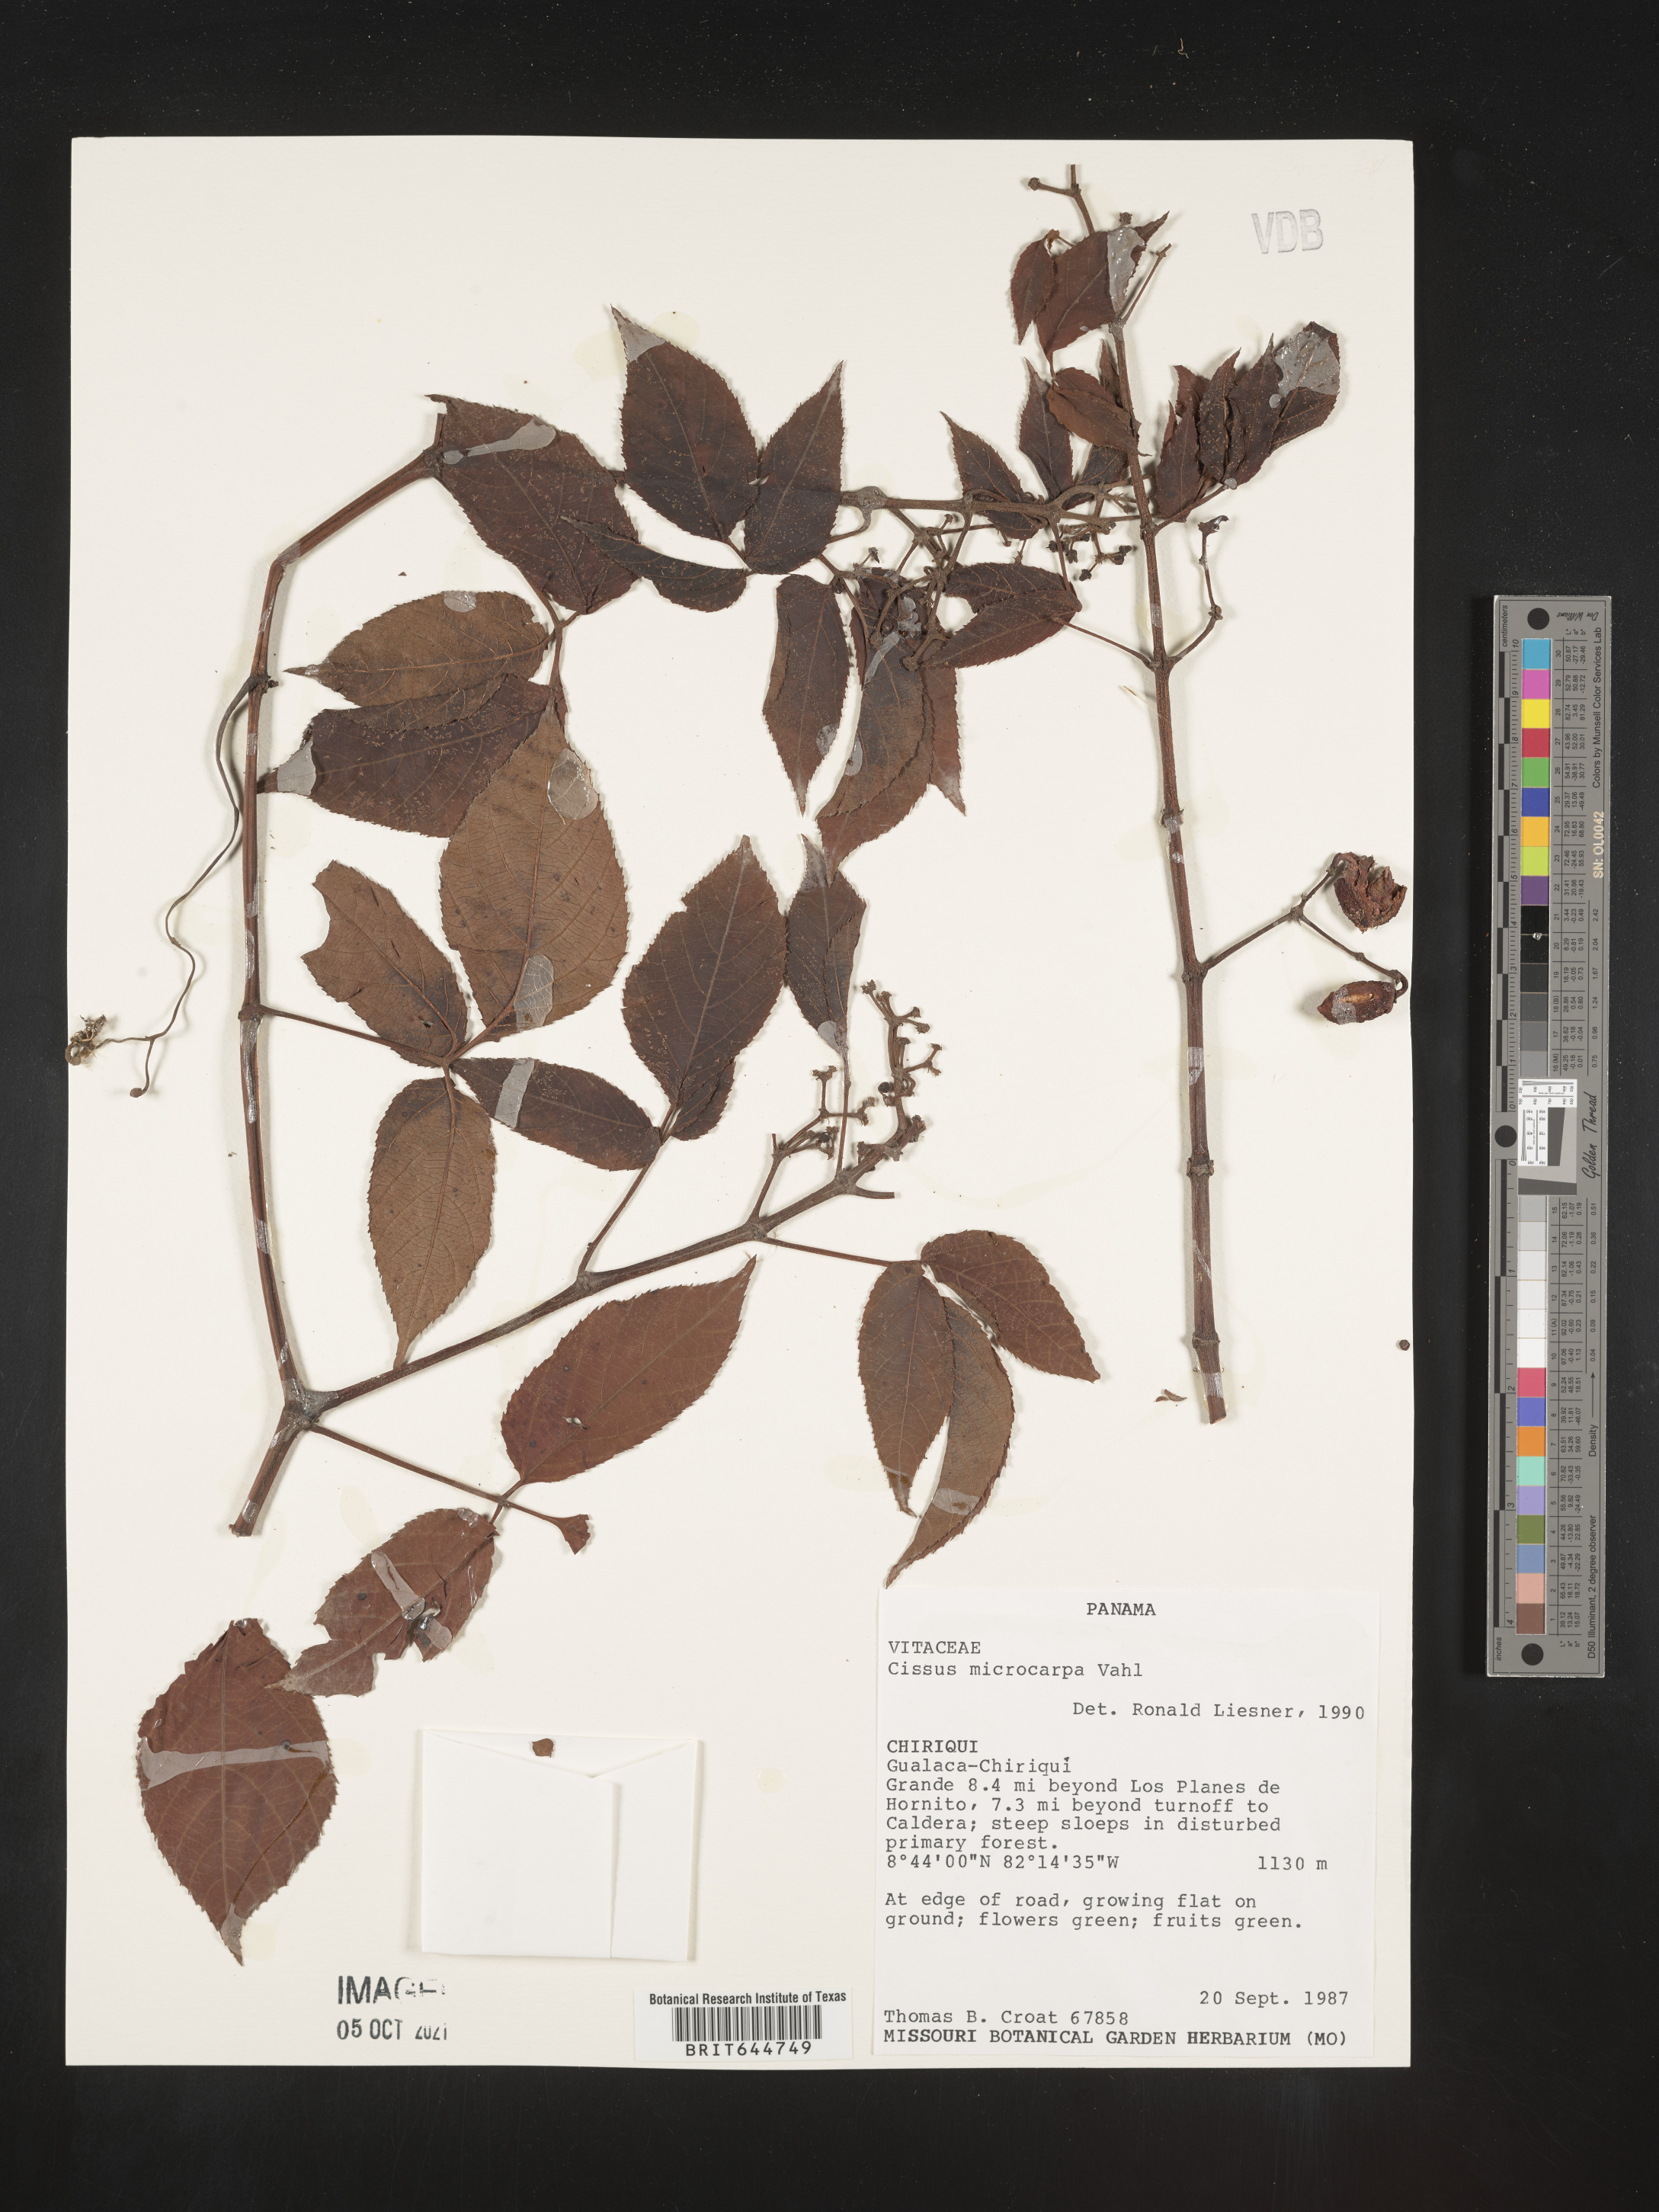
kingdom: Plantae
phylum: Tracheophyta
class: Magnoliopsida
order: Vitales
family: Vitaceae
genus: Cissus
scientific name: Cissus
